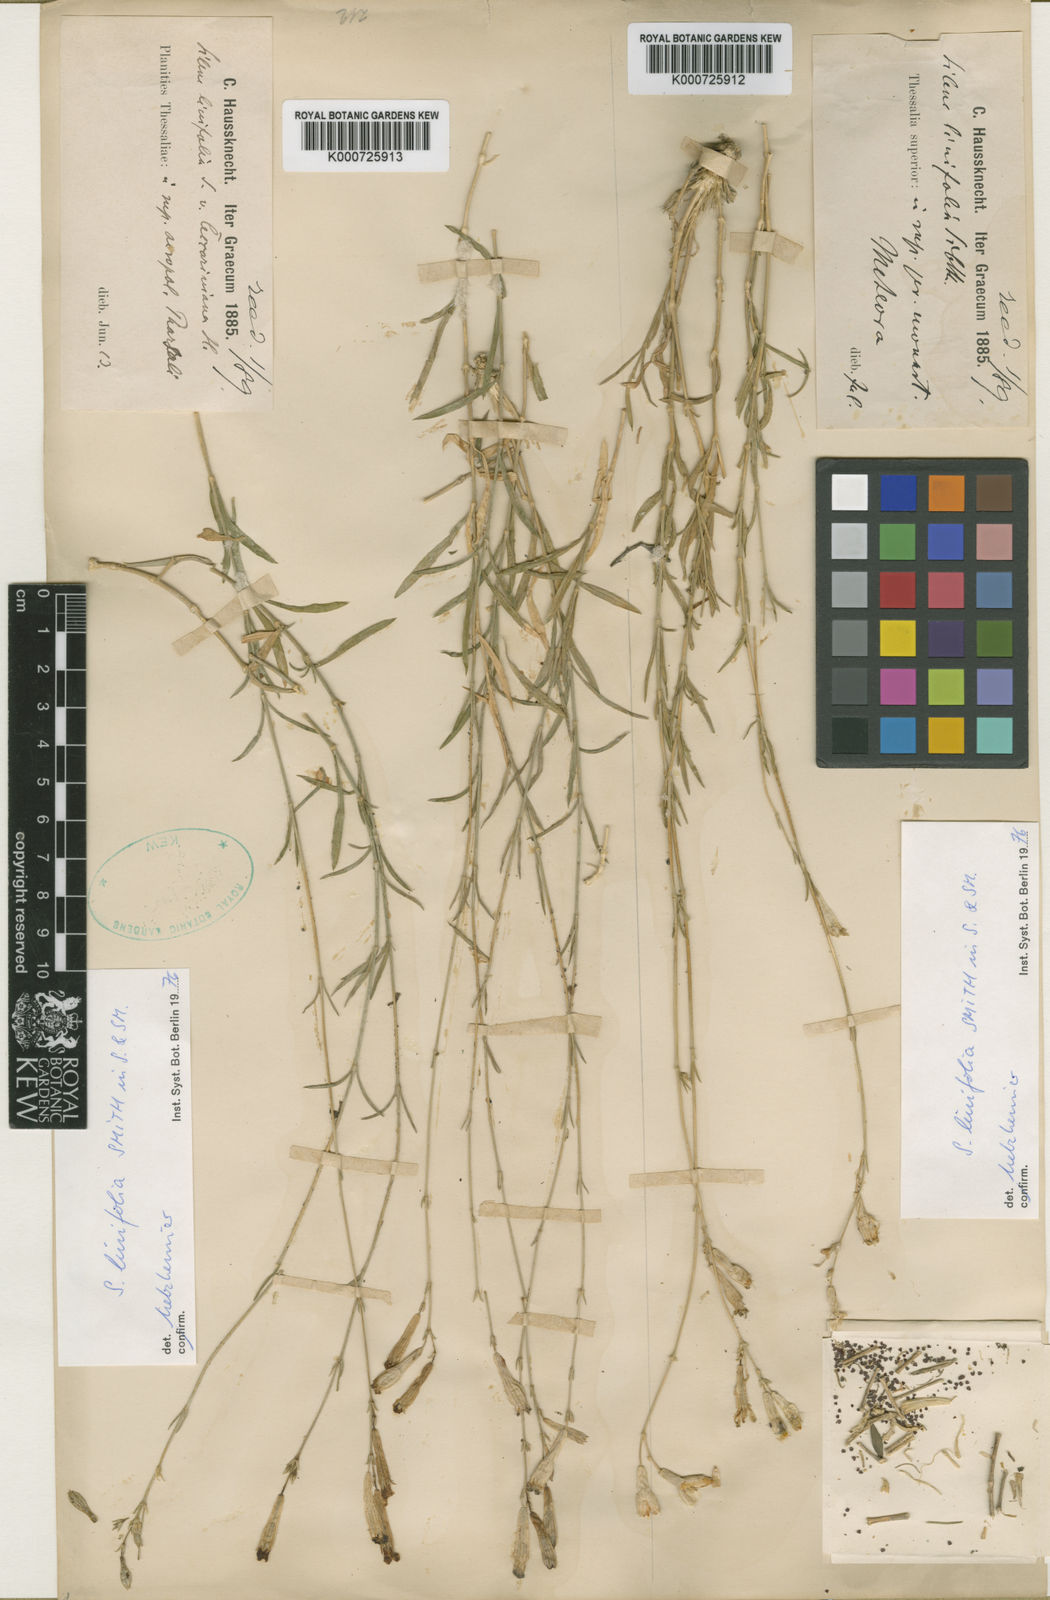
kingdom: Plantae
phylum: Tracheophyta
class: Magnoliopsida
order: Caryophyllales
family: Caryophyllaceae
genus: Silene
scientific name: Silene linoides
